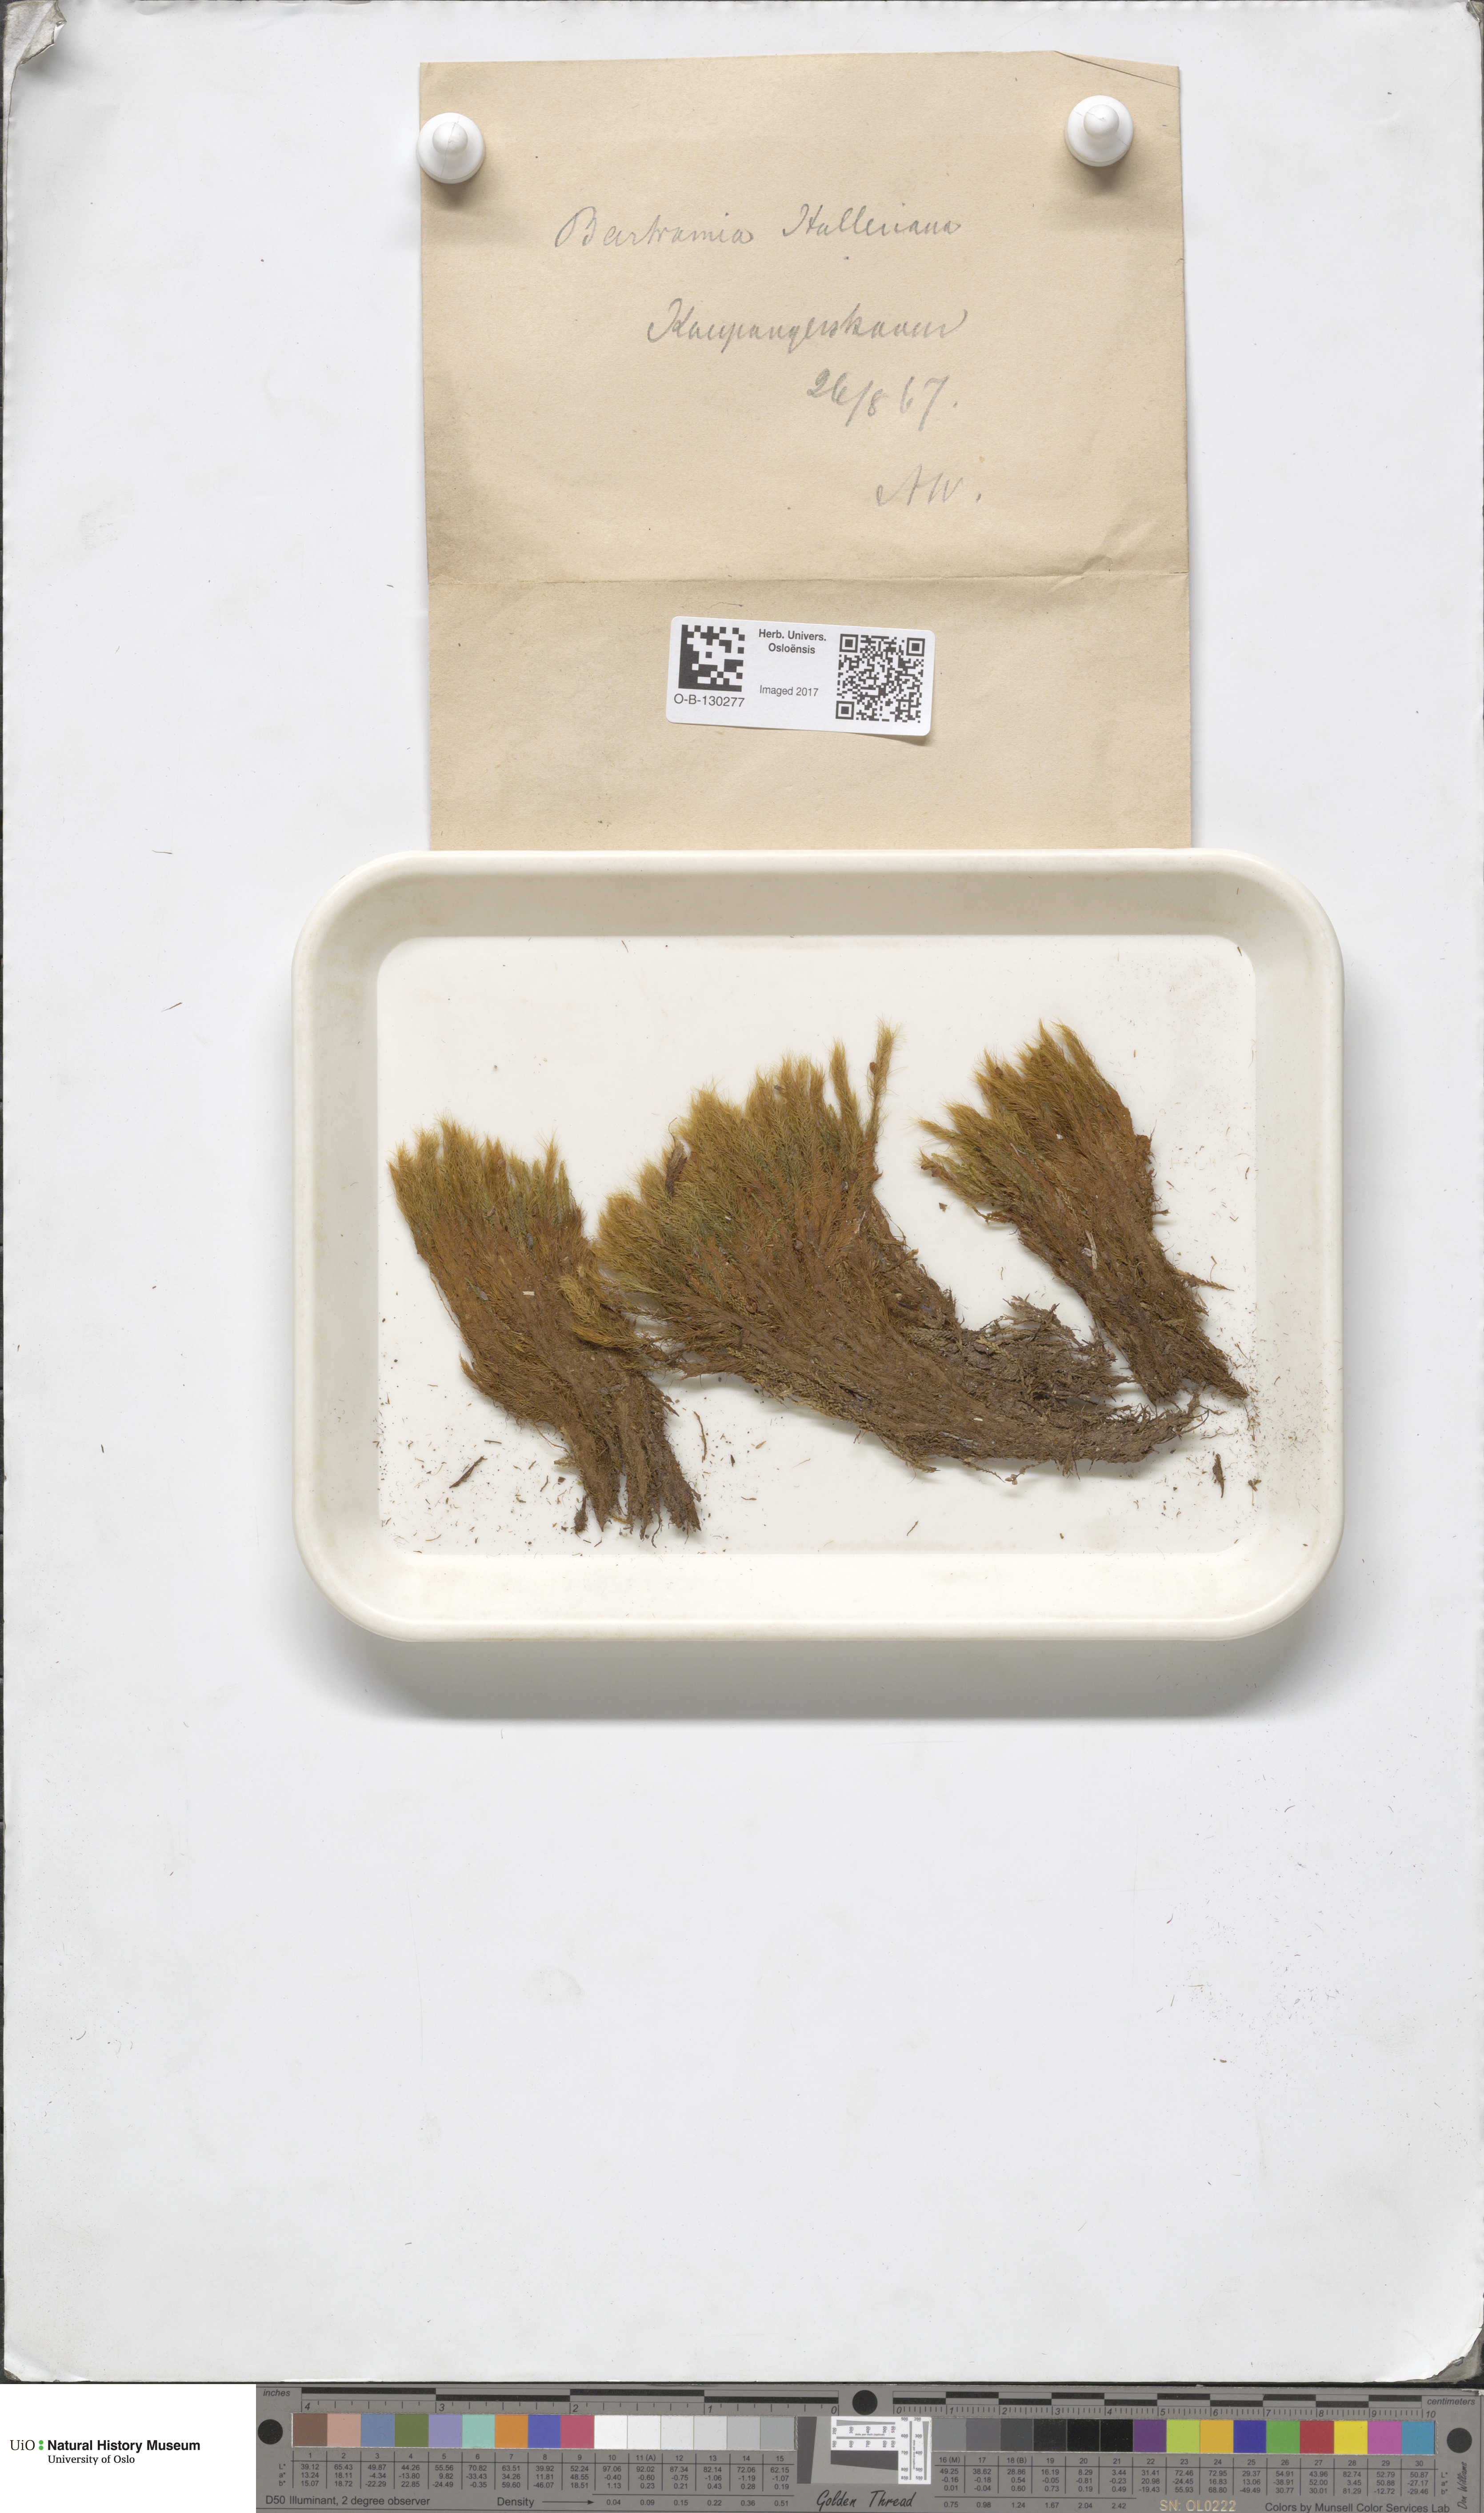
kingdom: Plantae
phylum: Bryophyta
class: Bryopsida
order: Bartramiales
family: Bartramiaceae
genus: Bartramia
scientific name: Bartramia halleriana
